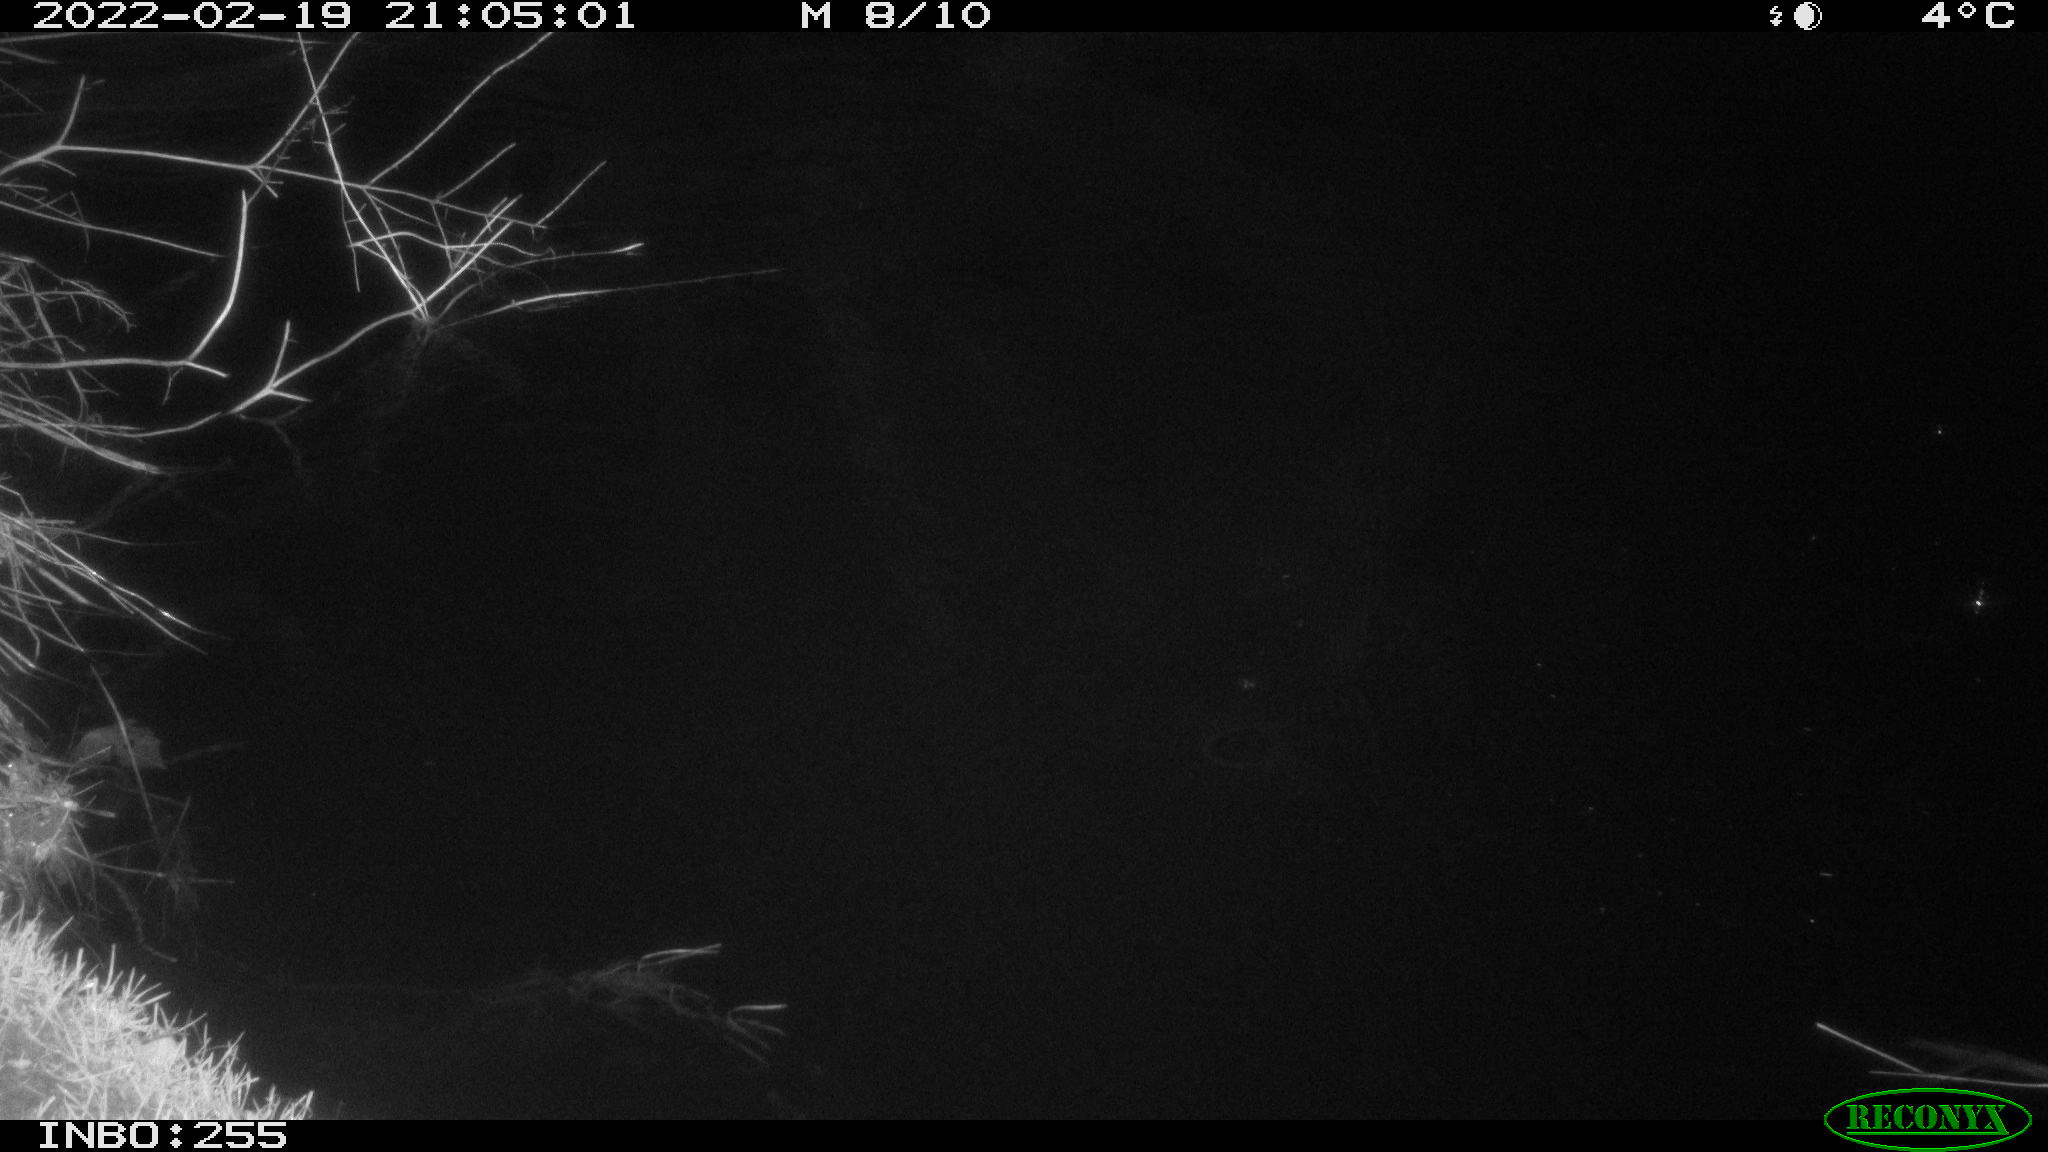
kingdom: Animalia
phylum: Chordata
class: Mammalia
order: Rodentia
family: Muridae
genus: Rattus
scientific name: Rattus norvegicus
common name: Brown rat
